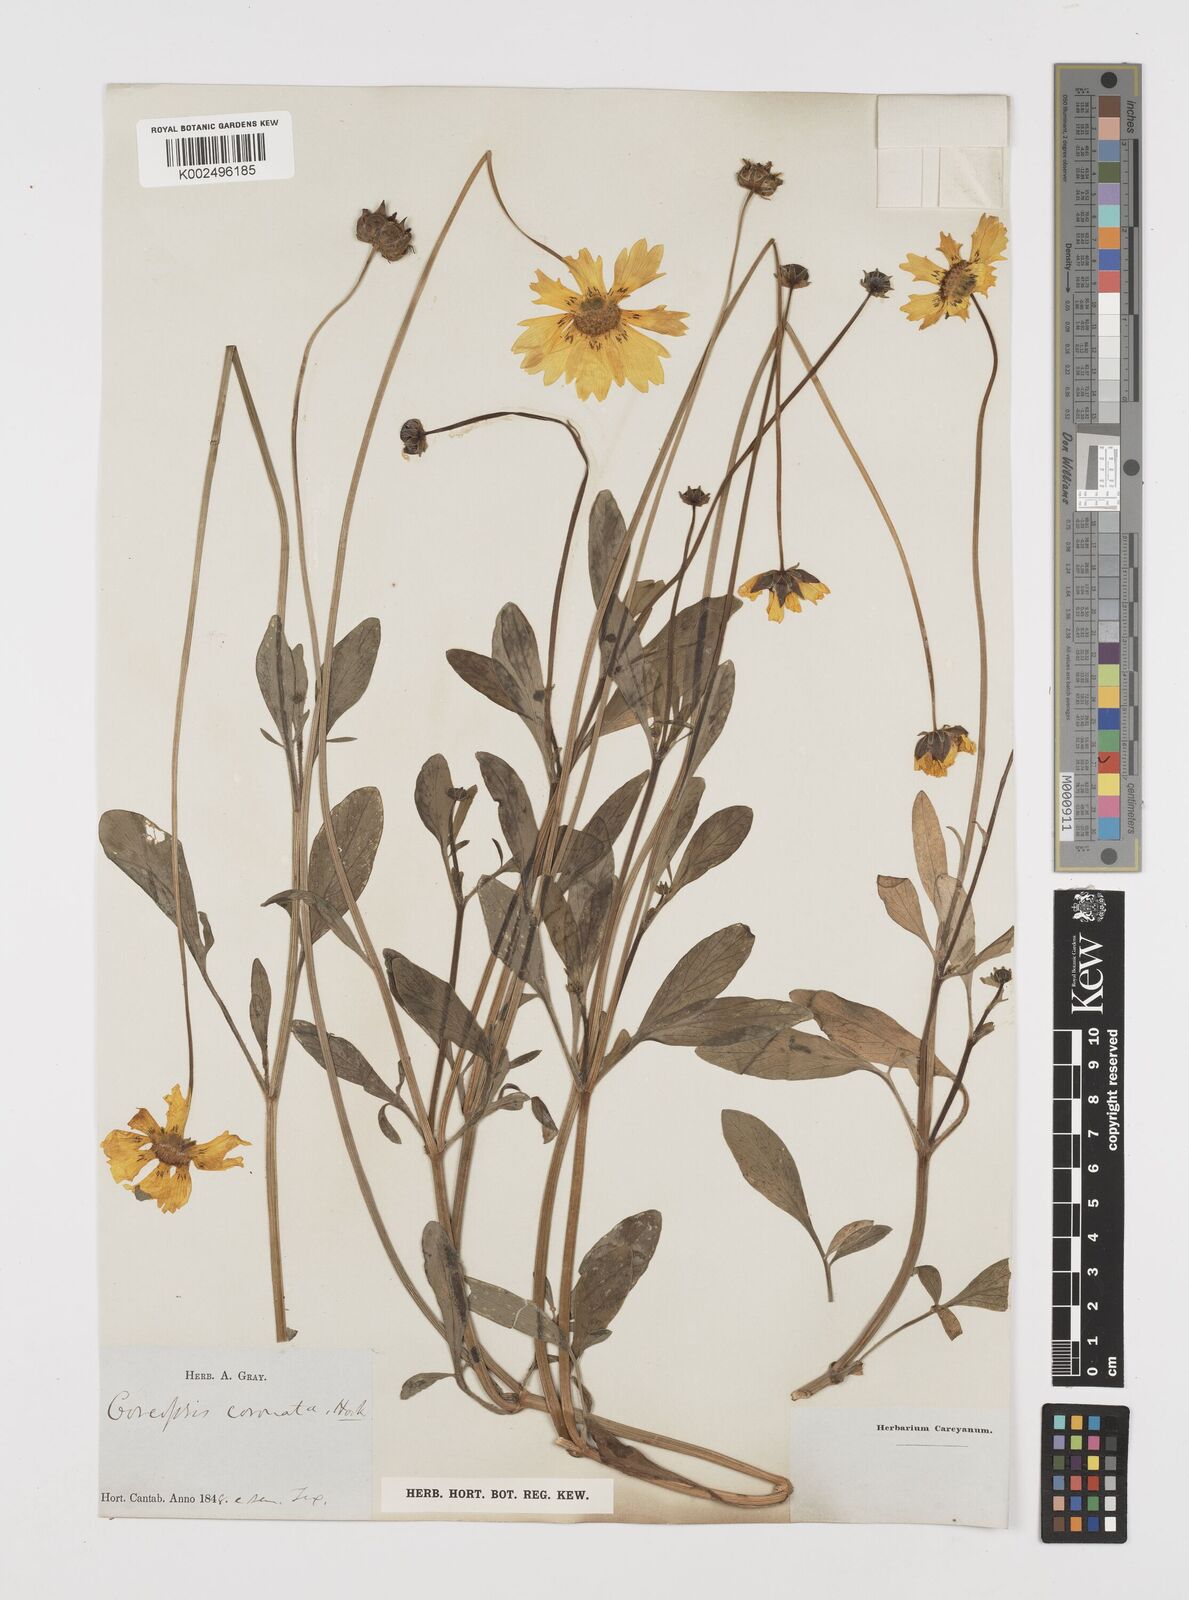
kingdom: Plantae
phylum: Tracheophyta
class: Magnoliopsida
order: Asterales
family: Asteraceae
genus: Coreopsis
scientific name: Coreopsis nuecensis
